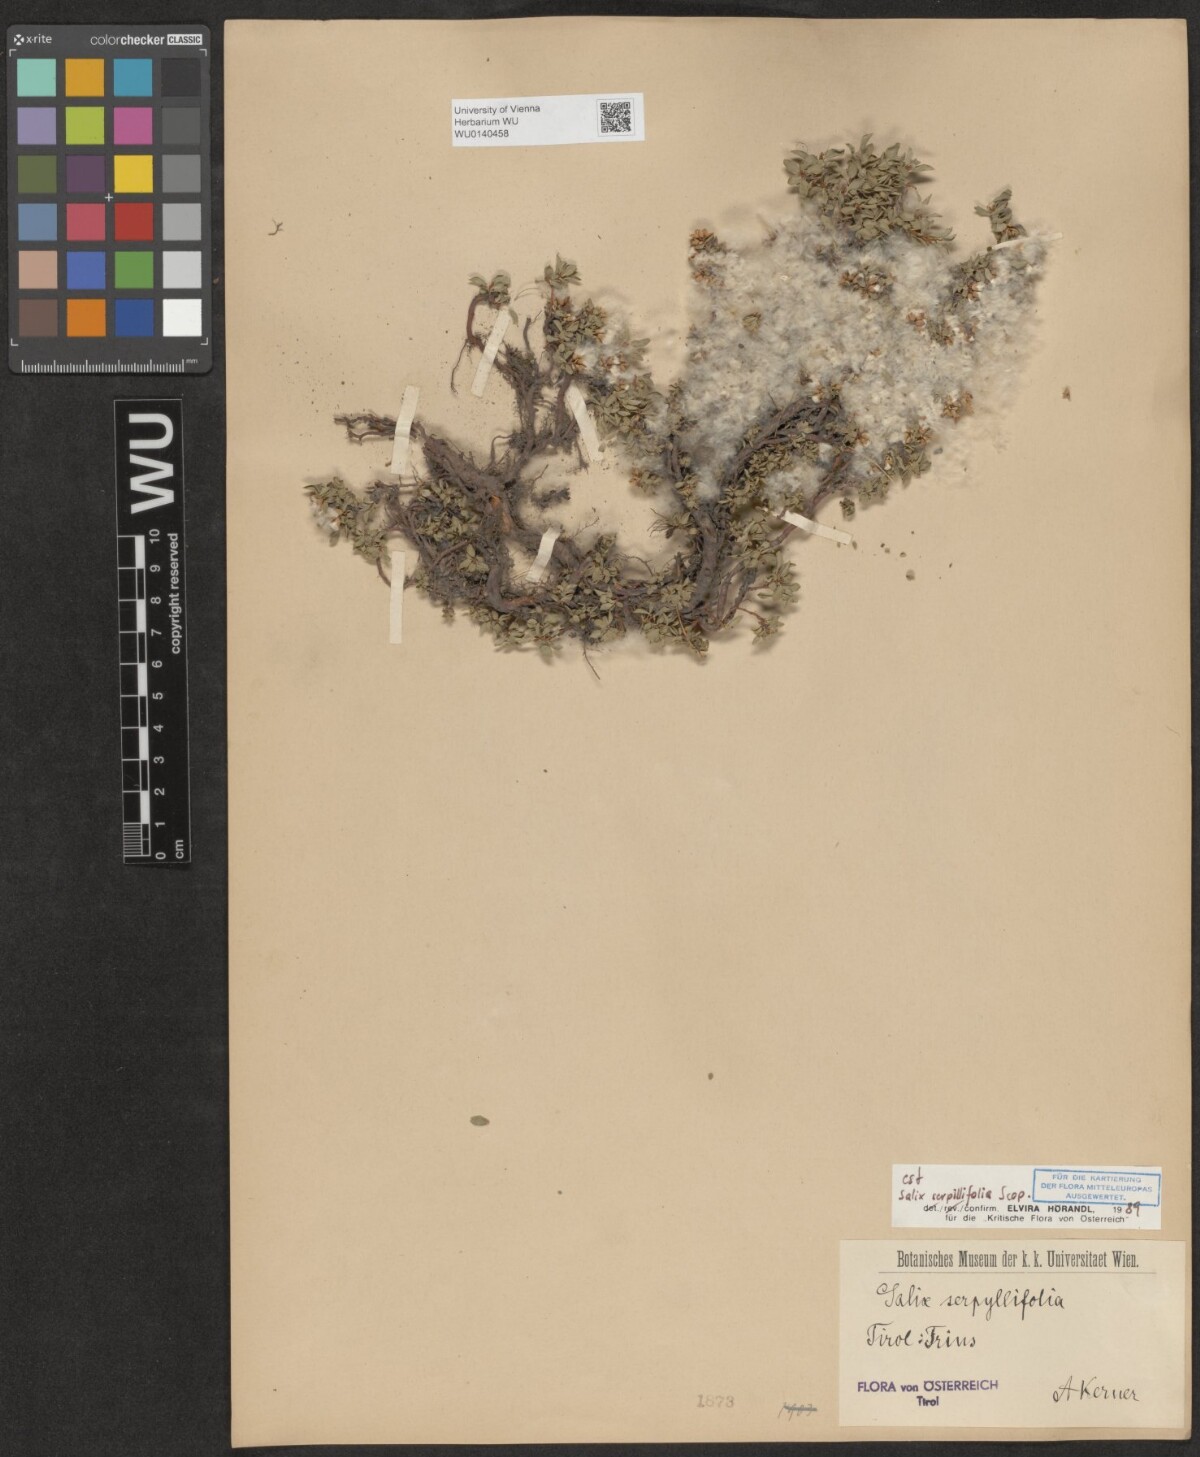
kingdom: Plantae
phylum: Tracheophyta
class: Magnoliopsida
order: Malpighiales
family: Salicaceae
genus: Salix
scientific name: Salix serpillifolia
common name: Thyme-leaf willow
